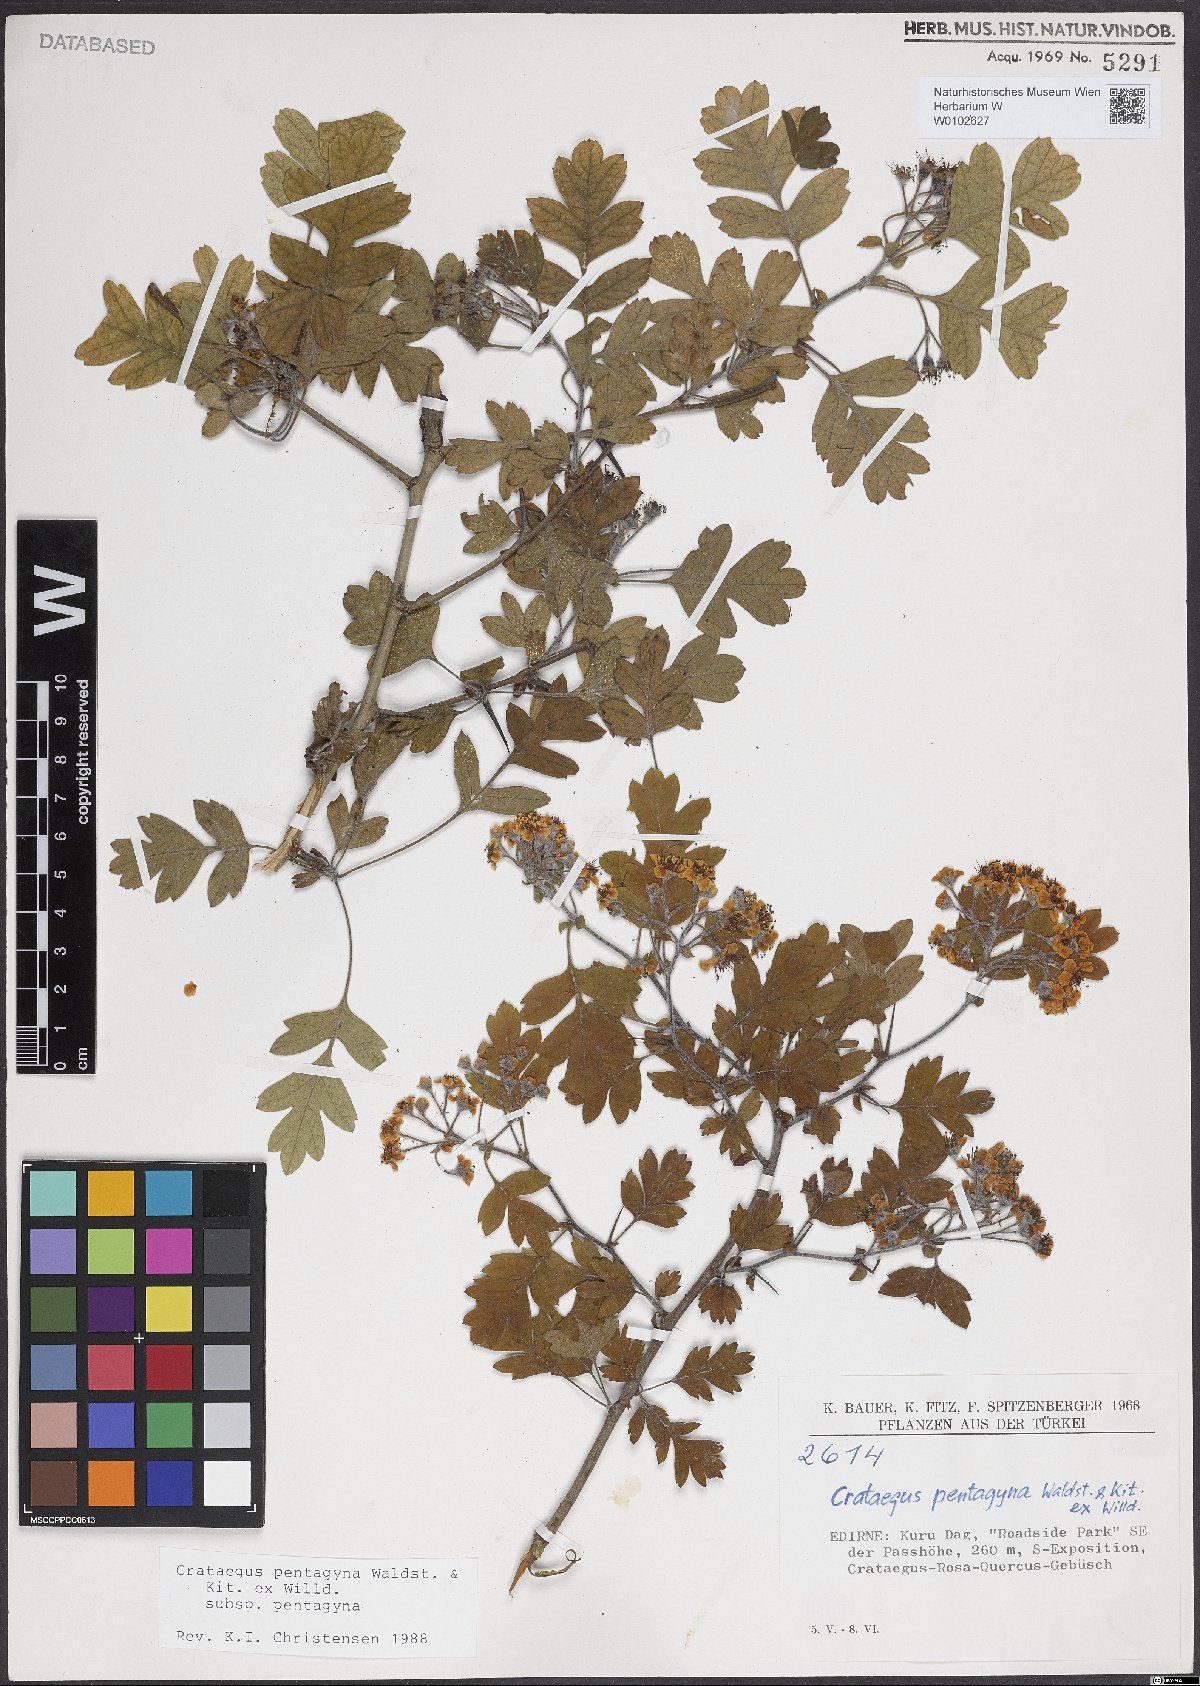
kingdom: Plantae
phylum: Tracheophyta
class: Magnoliopsida
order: Rosales
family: Rosaceae
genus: Crataegus
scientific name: Crataegus pentagyna
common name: Small-flowered black hawthorn
